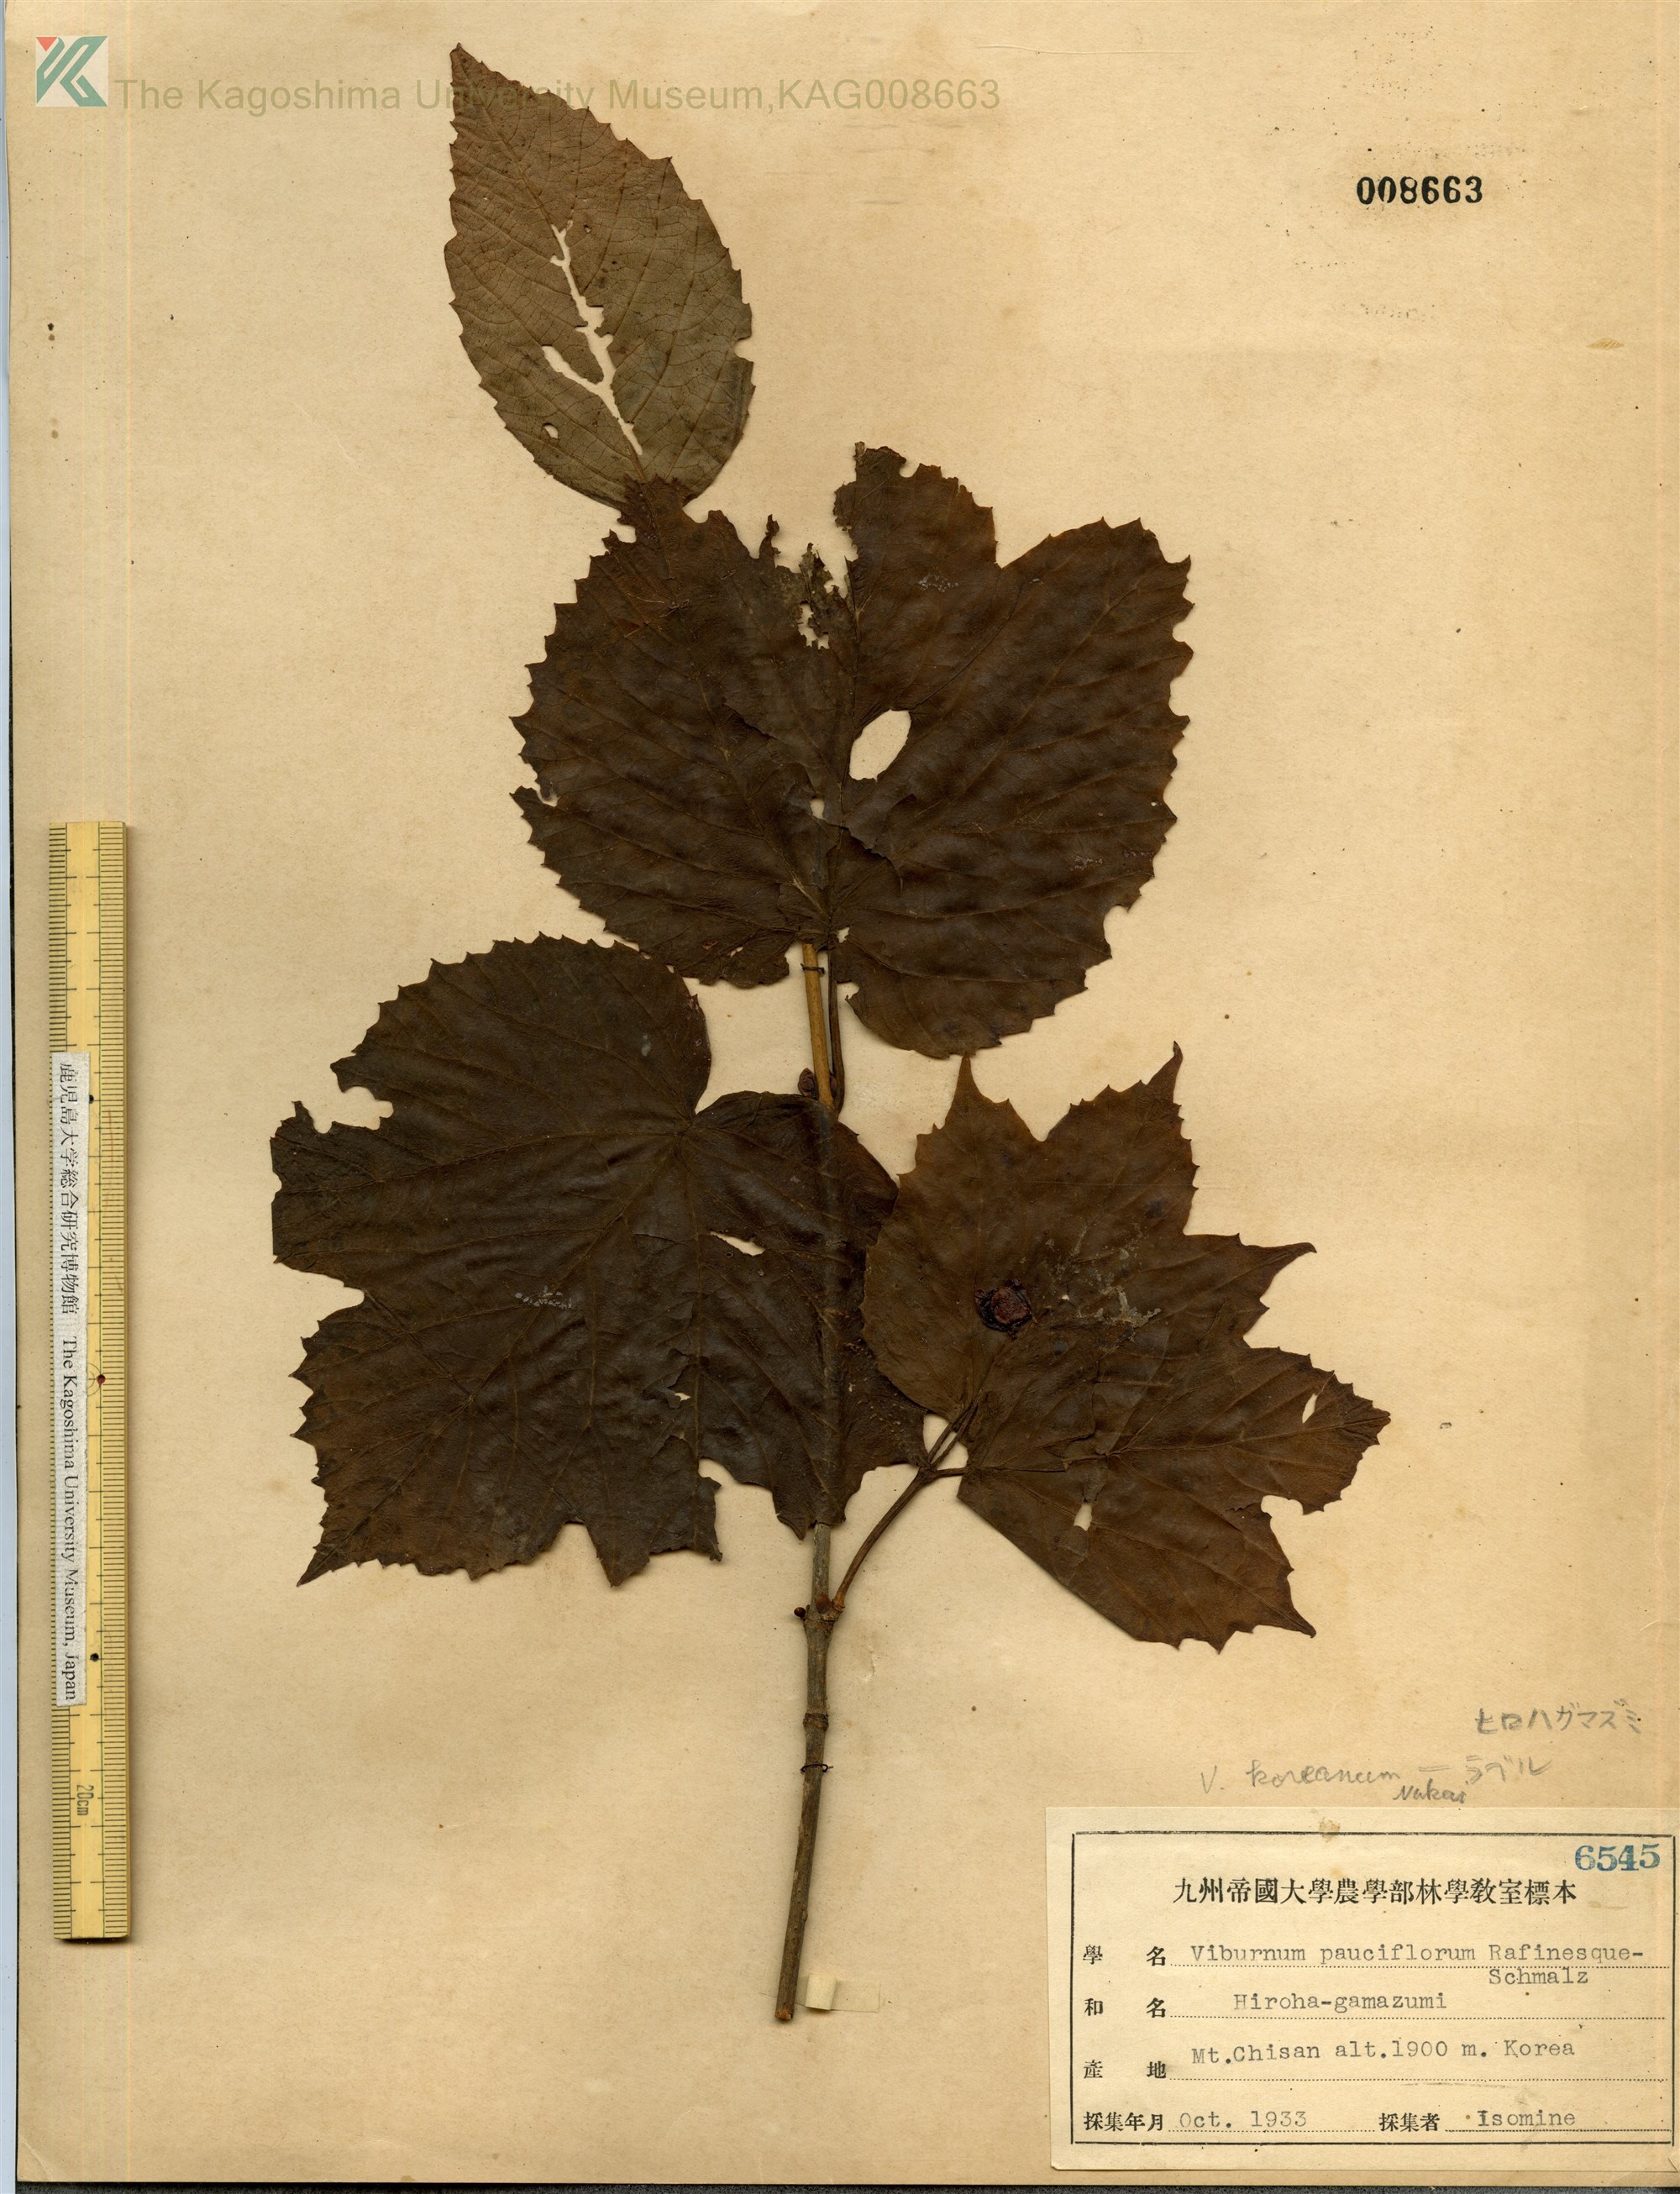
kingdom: Plantae
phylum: Tracheophyta
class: Magnoliopsida
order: Dipsacales
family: Viburnaceae
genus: Viburnum
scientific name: Viburnum koreanum
